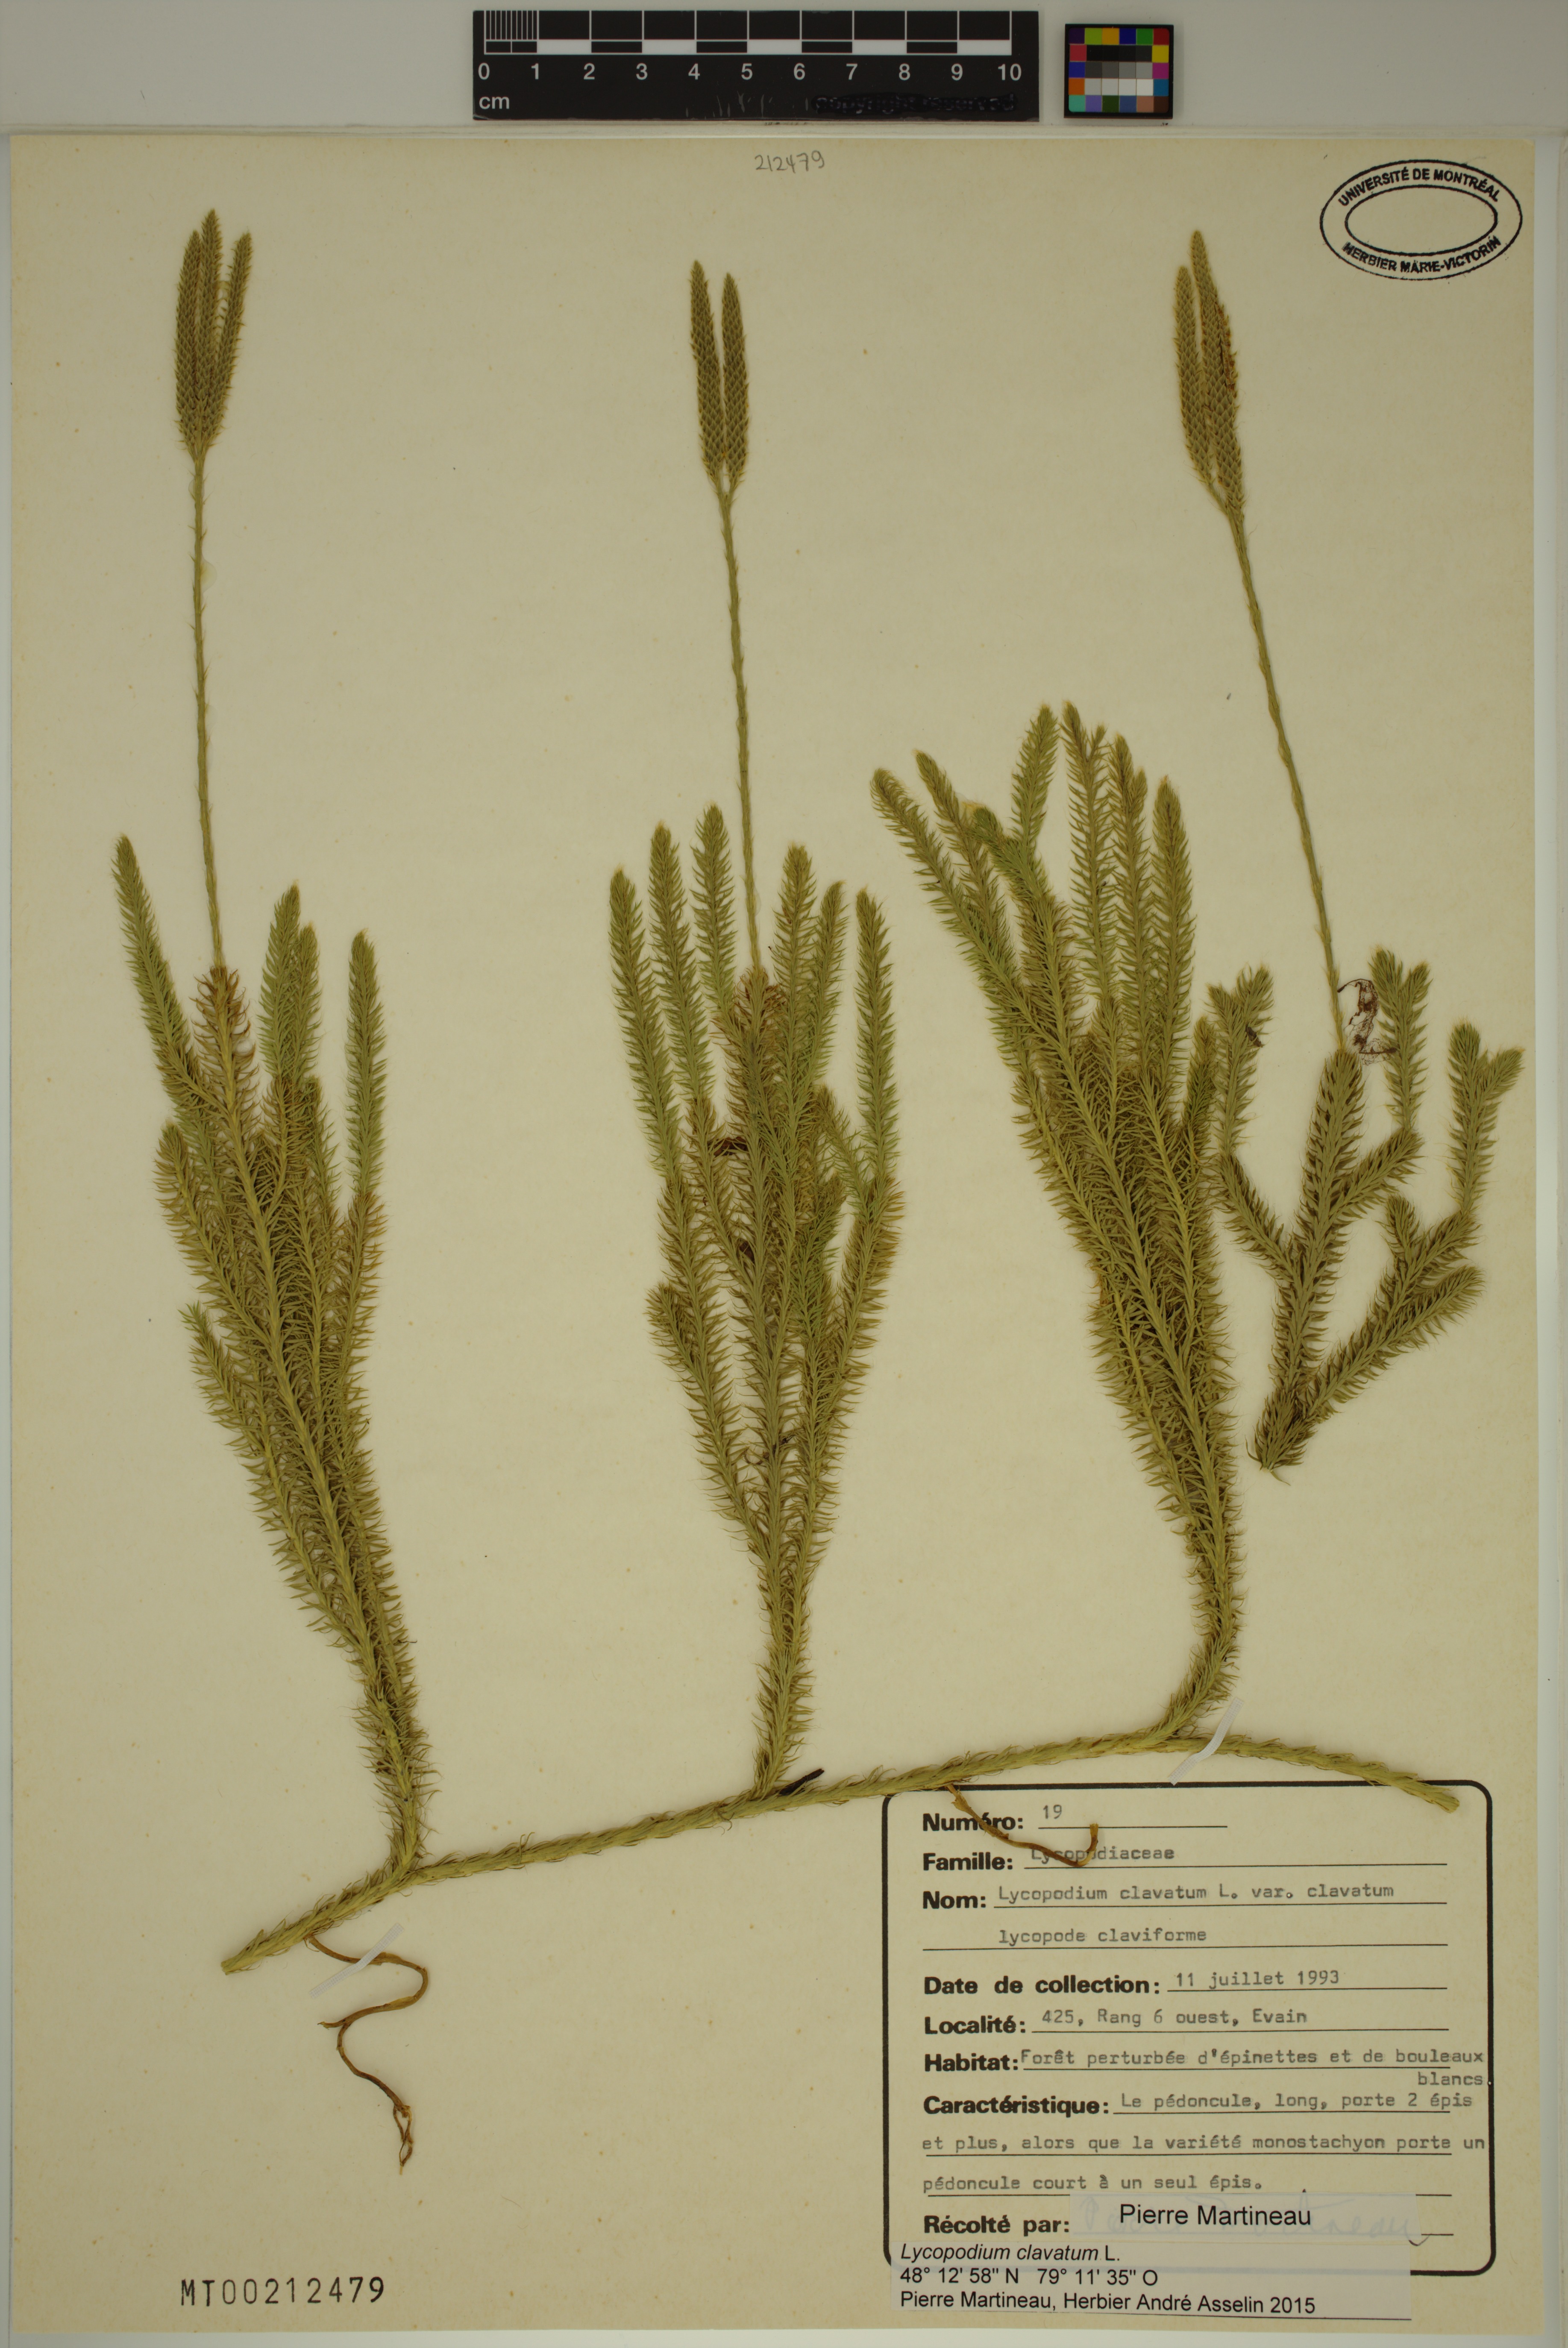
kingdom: Plantae
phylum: Tracheophyta
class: Lycopodiopsida
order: Lycopodiales
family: Lycopodiaceae
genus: Lycopodium
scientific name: Lycopodium clavatum
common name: Stag's-horn clubmoss
